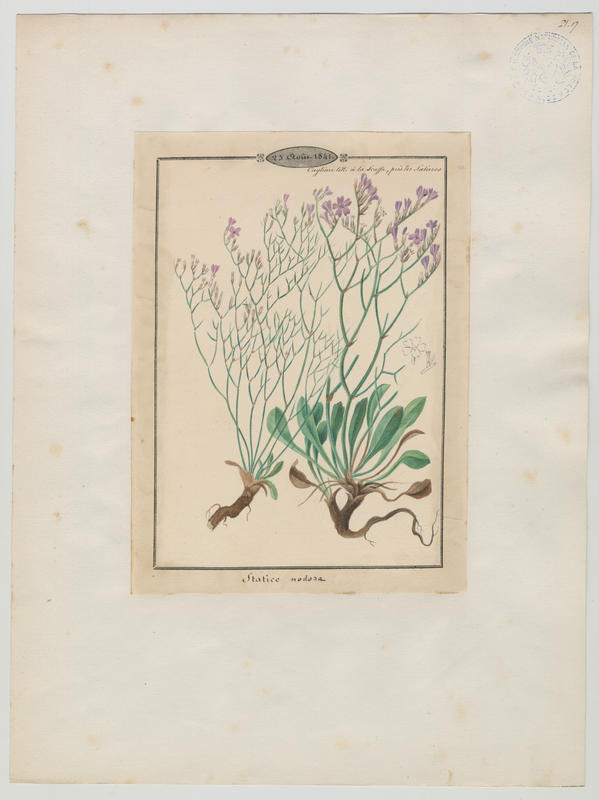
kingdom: Plantae
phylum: Tracheophyta
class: Magnoliopsida
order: Caryophyllales
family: Plumbaginaceae
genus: Limonium
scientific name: Limonium
